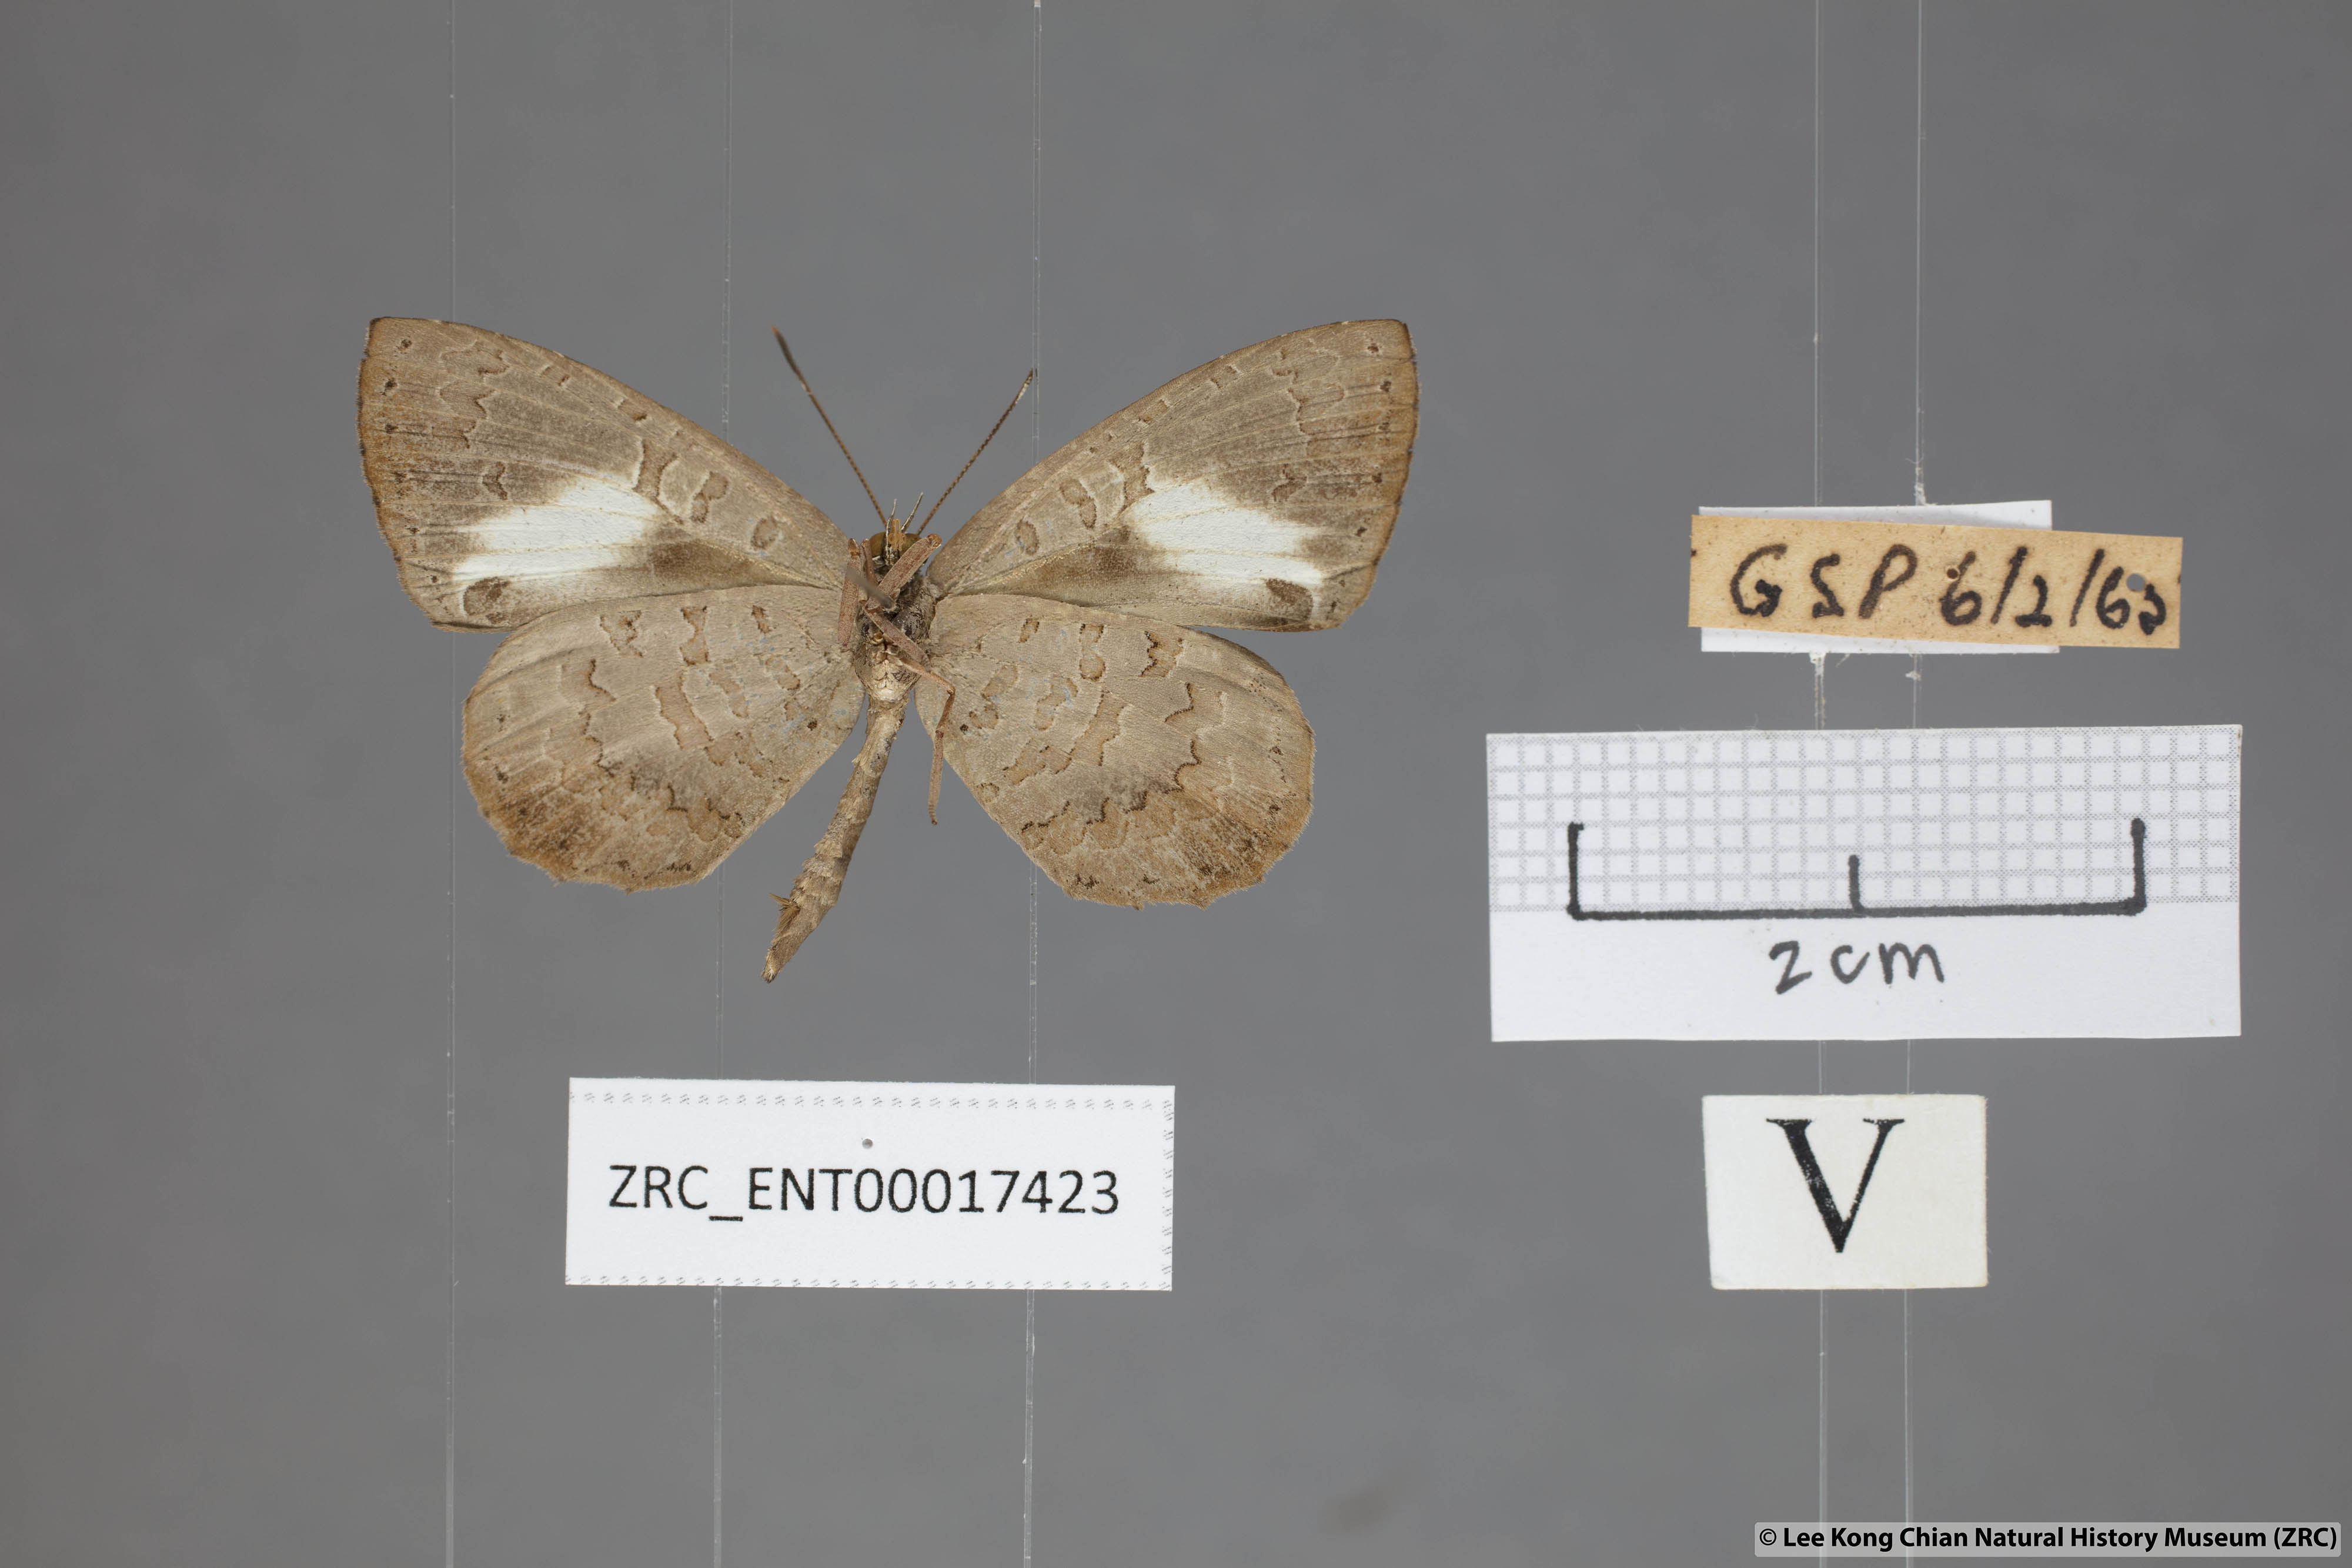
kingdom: Animalia
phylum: Arthropoda
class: Insecta
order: Lepidoptera
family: Lycaenidae
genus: Miletus
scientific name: Miletus biggsii
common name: Bigg's brownie
